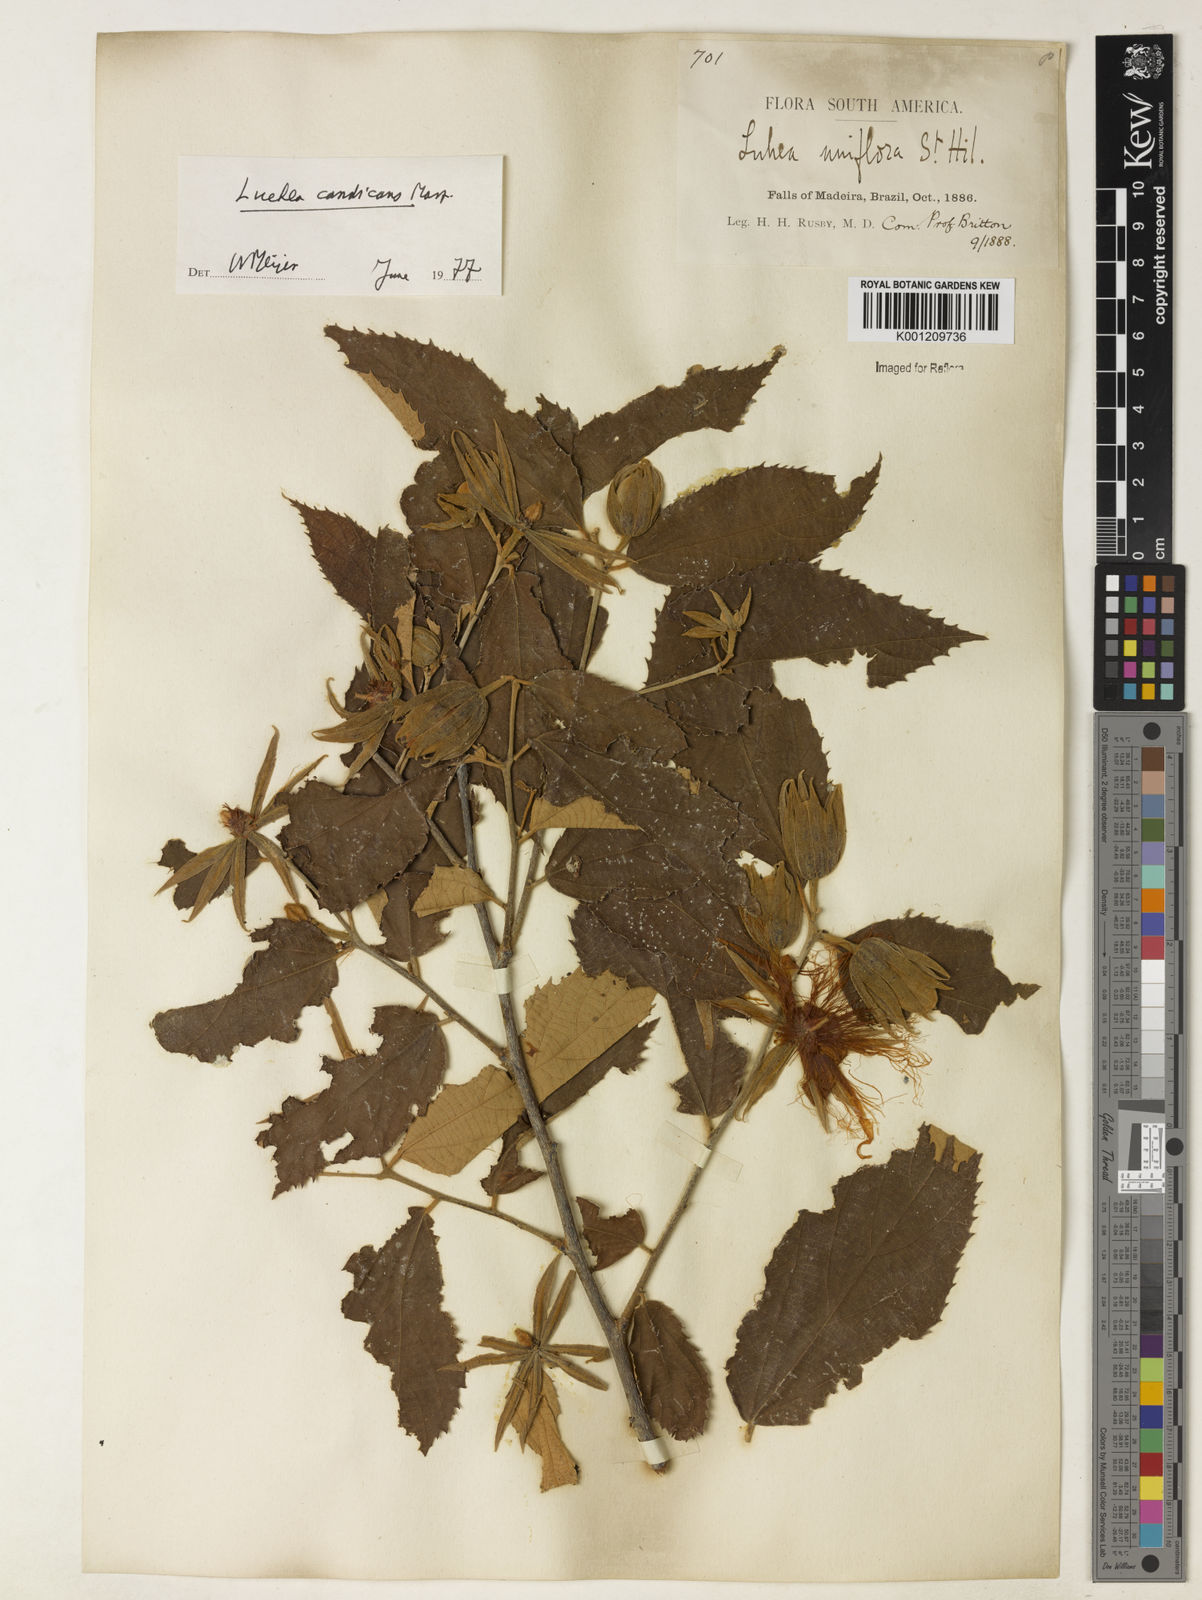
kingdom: Plantae
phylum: Tracheophyta
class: Magnoliopsida
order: Malvales
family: Malvaceae
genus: Luehea
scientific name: Luehea candicans
